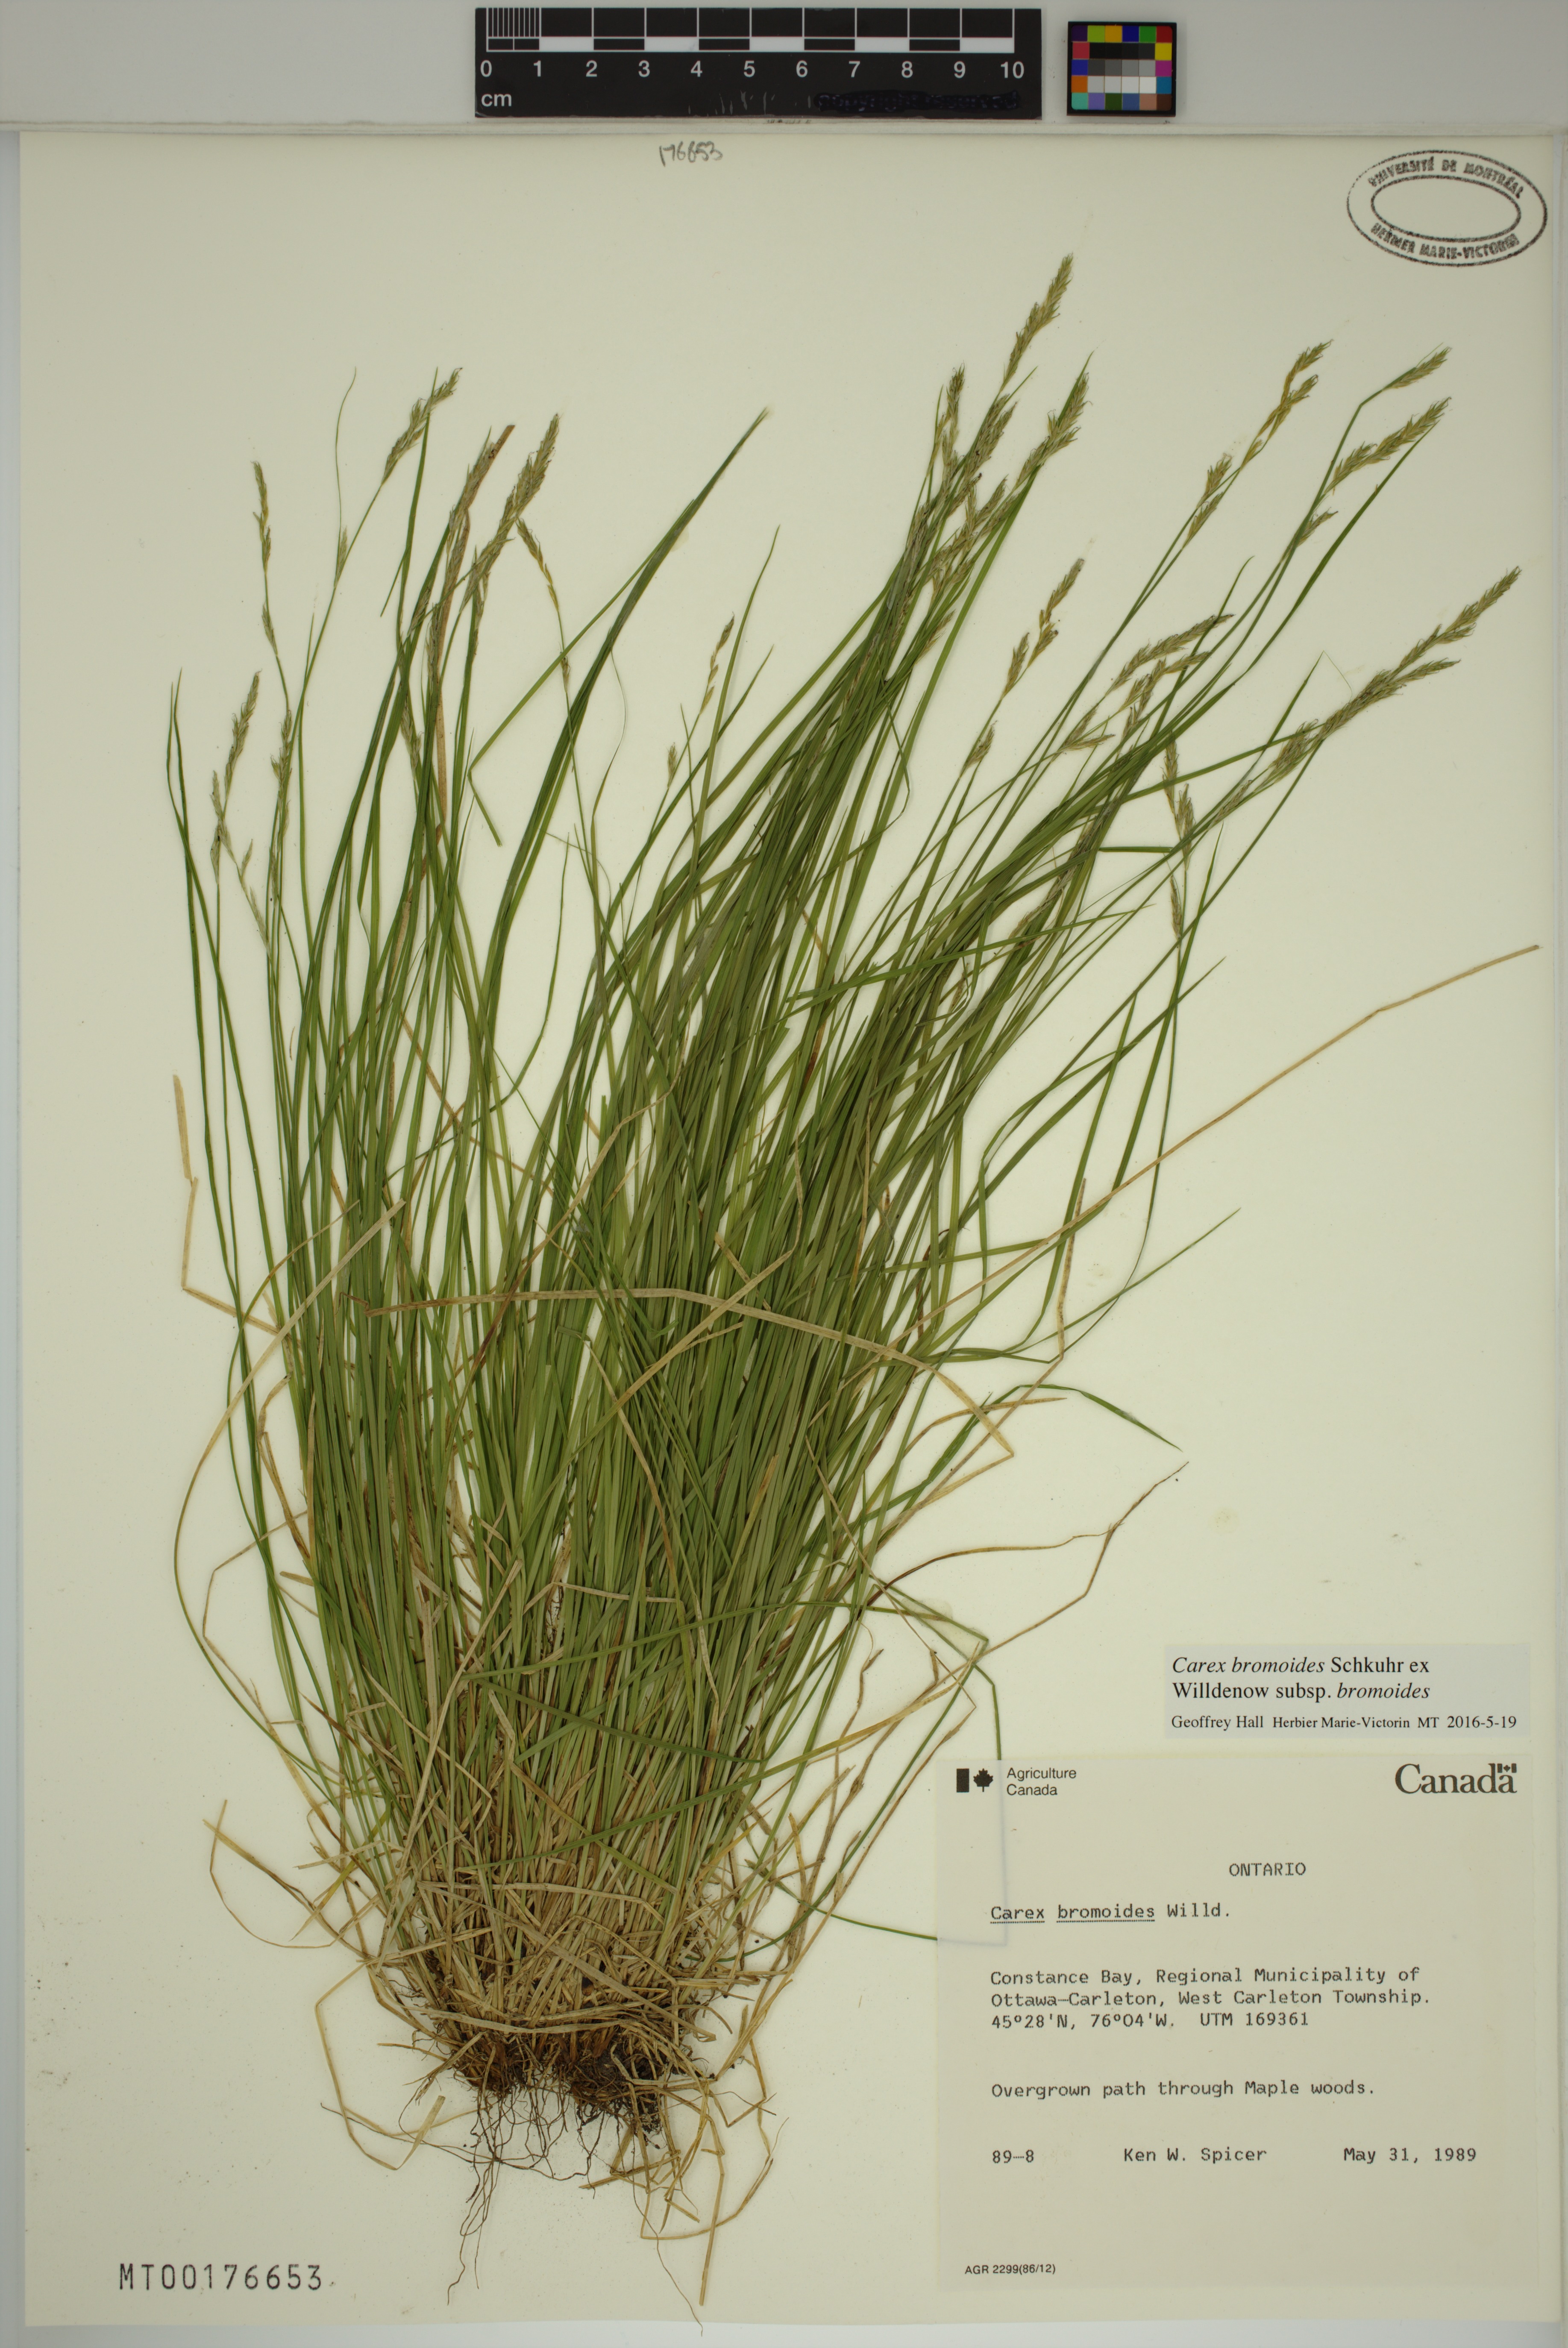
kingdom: Plantae
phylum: Tracheophyta
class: Liliopsida
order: Poales
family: Cyperaceae
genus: Carex
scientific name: Carex bromoides
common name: Brome hummock sedge
